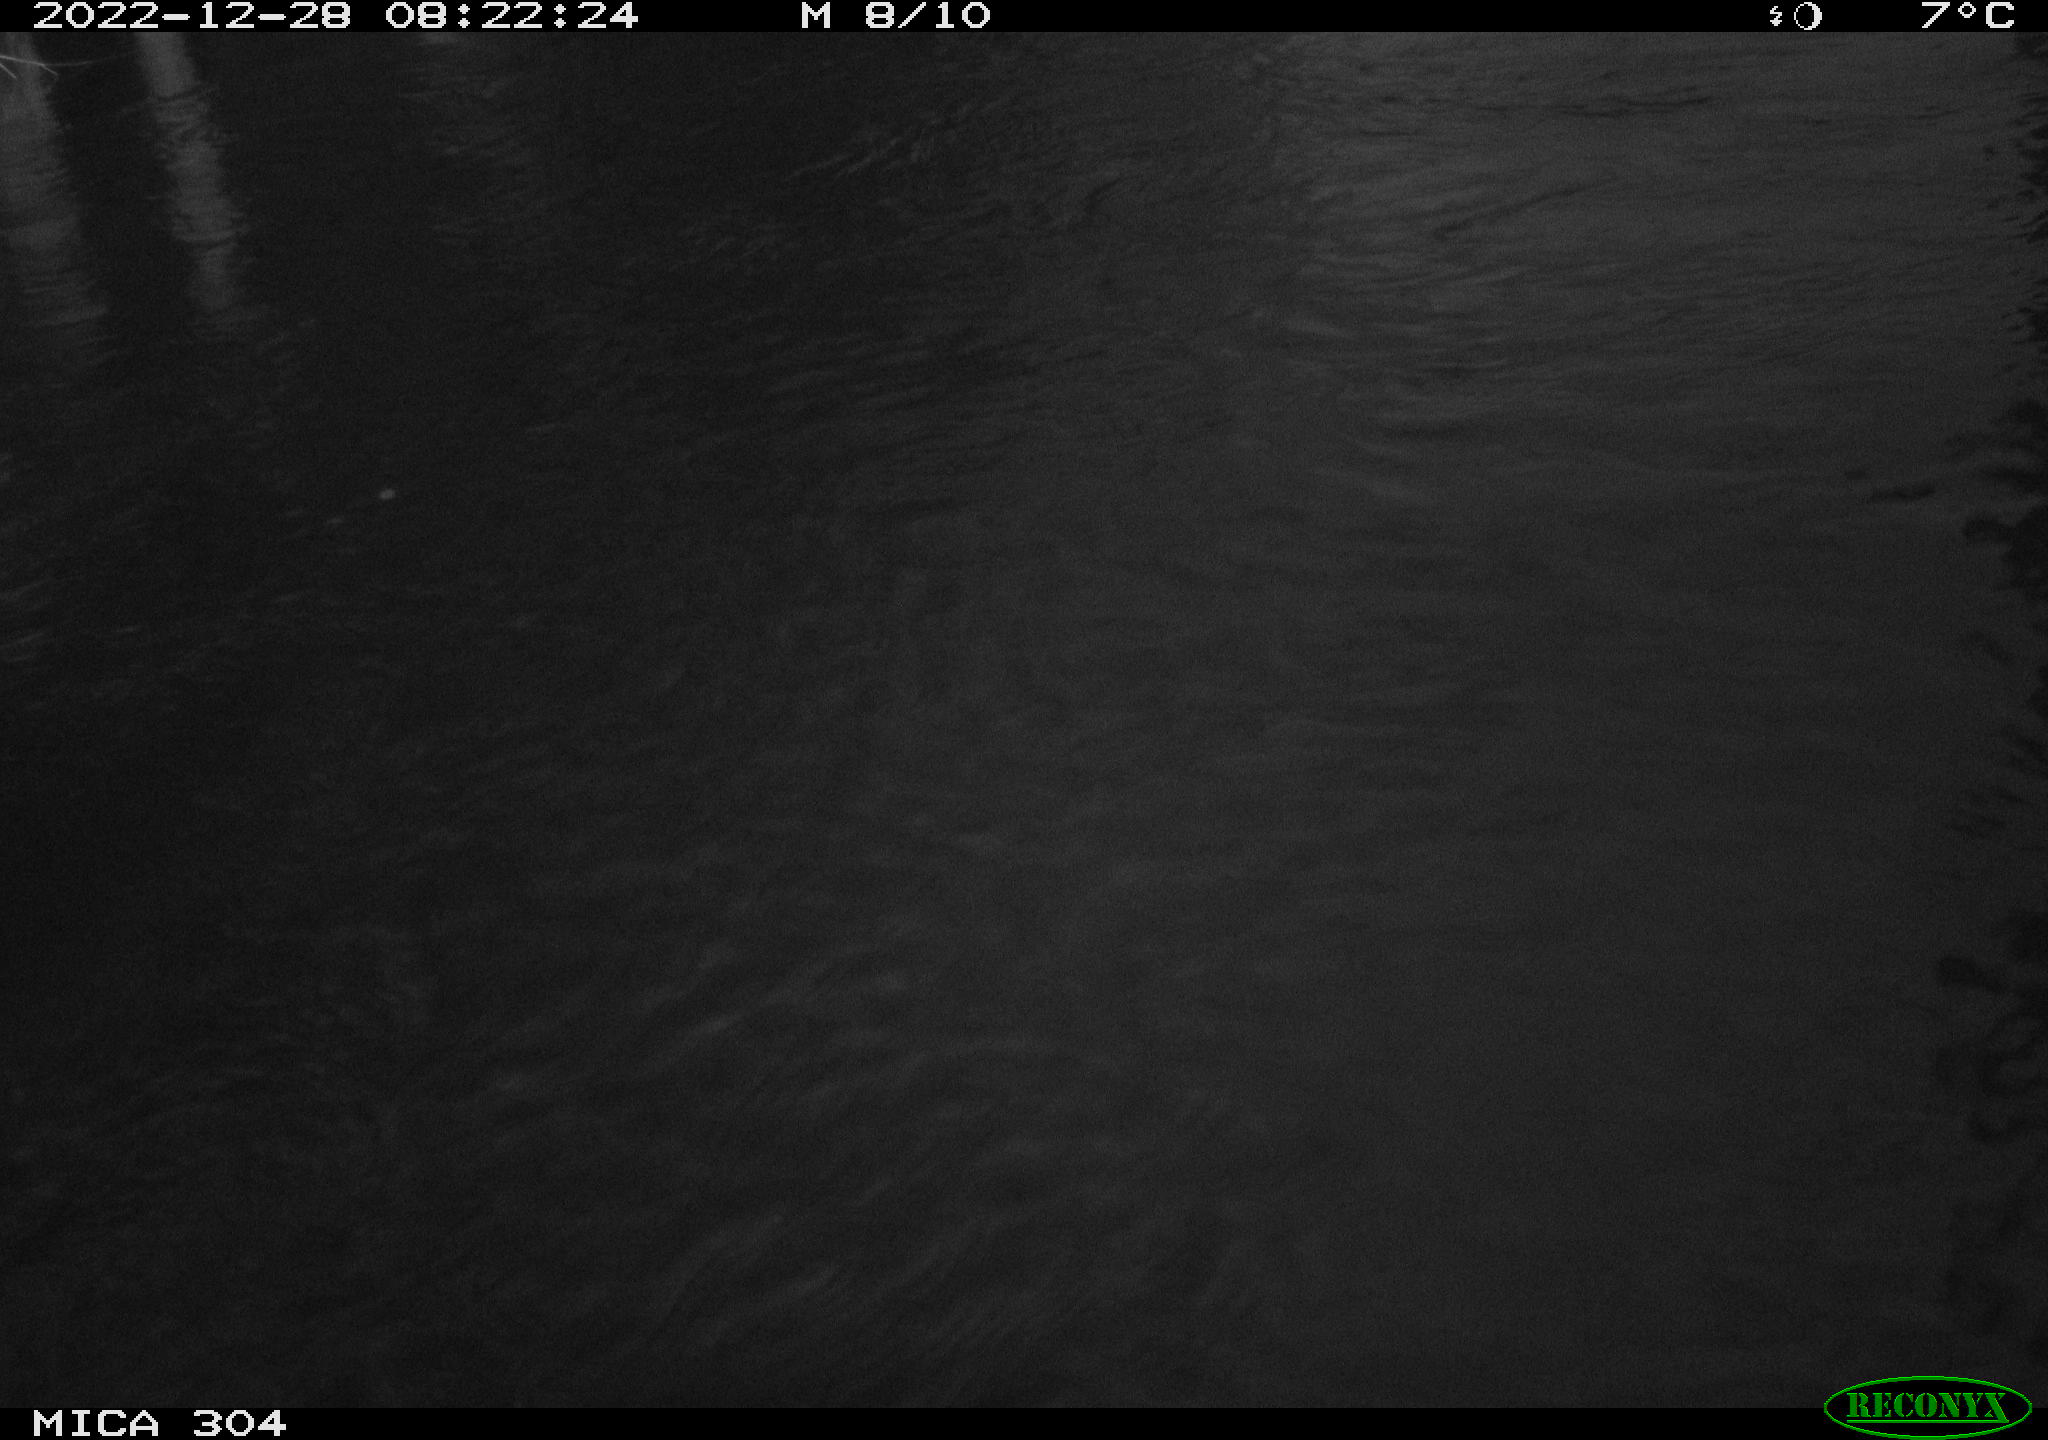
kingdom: Animalia
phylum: Chordata
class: Aves
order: Anseriformes
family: Anatidae
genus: Anas
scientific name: Anas
